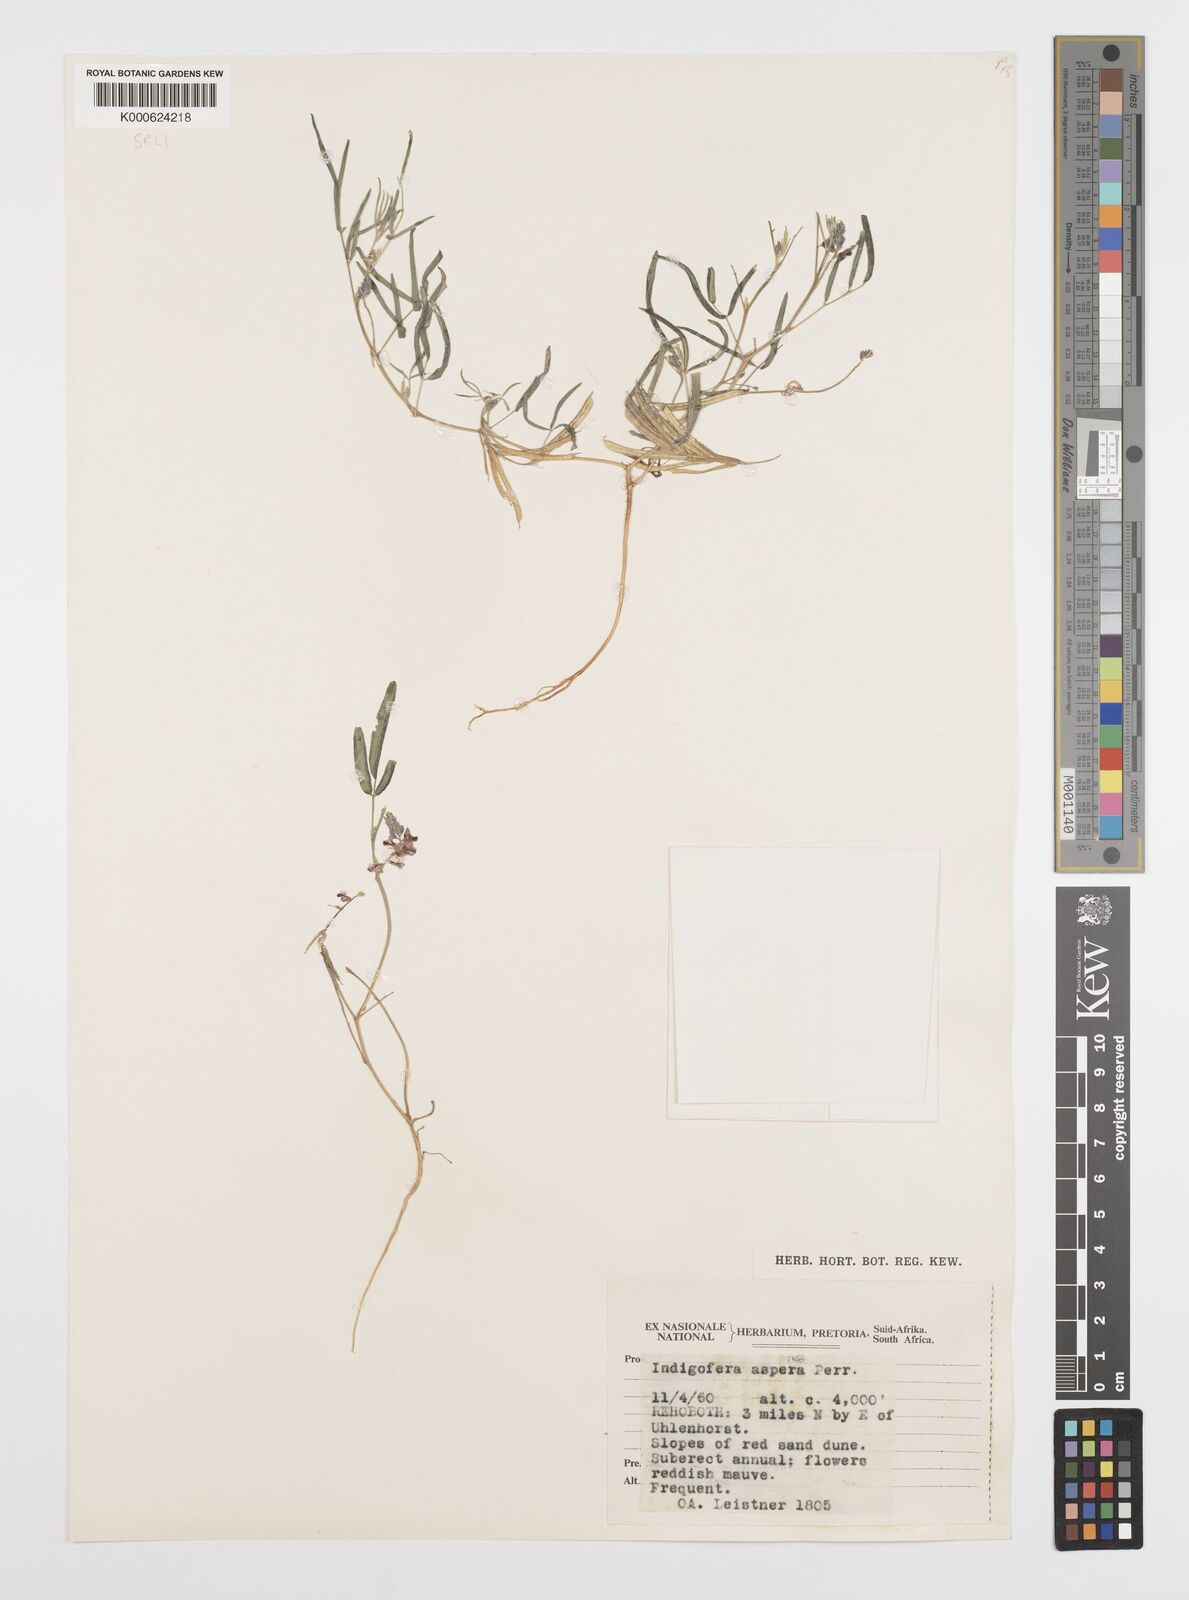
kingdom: Plantae
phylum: Tracheophyta
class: Magnoliopsida
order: Fabales
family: Fabaceae
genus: Indigofera
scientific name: Indigofera charlieriana
